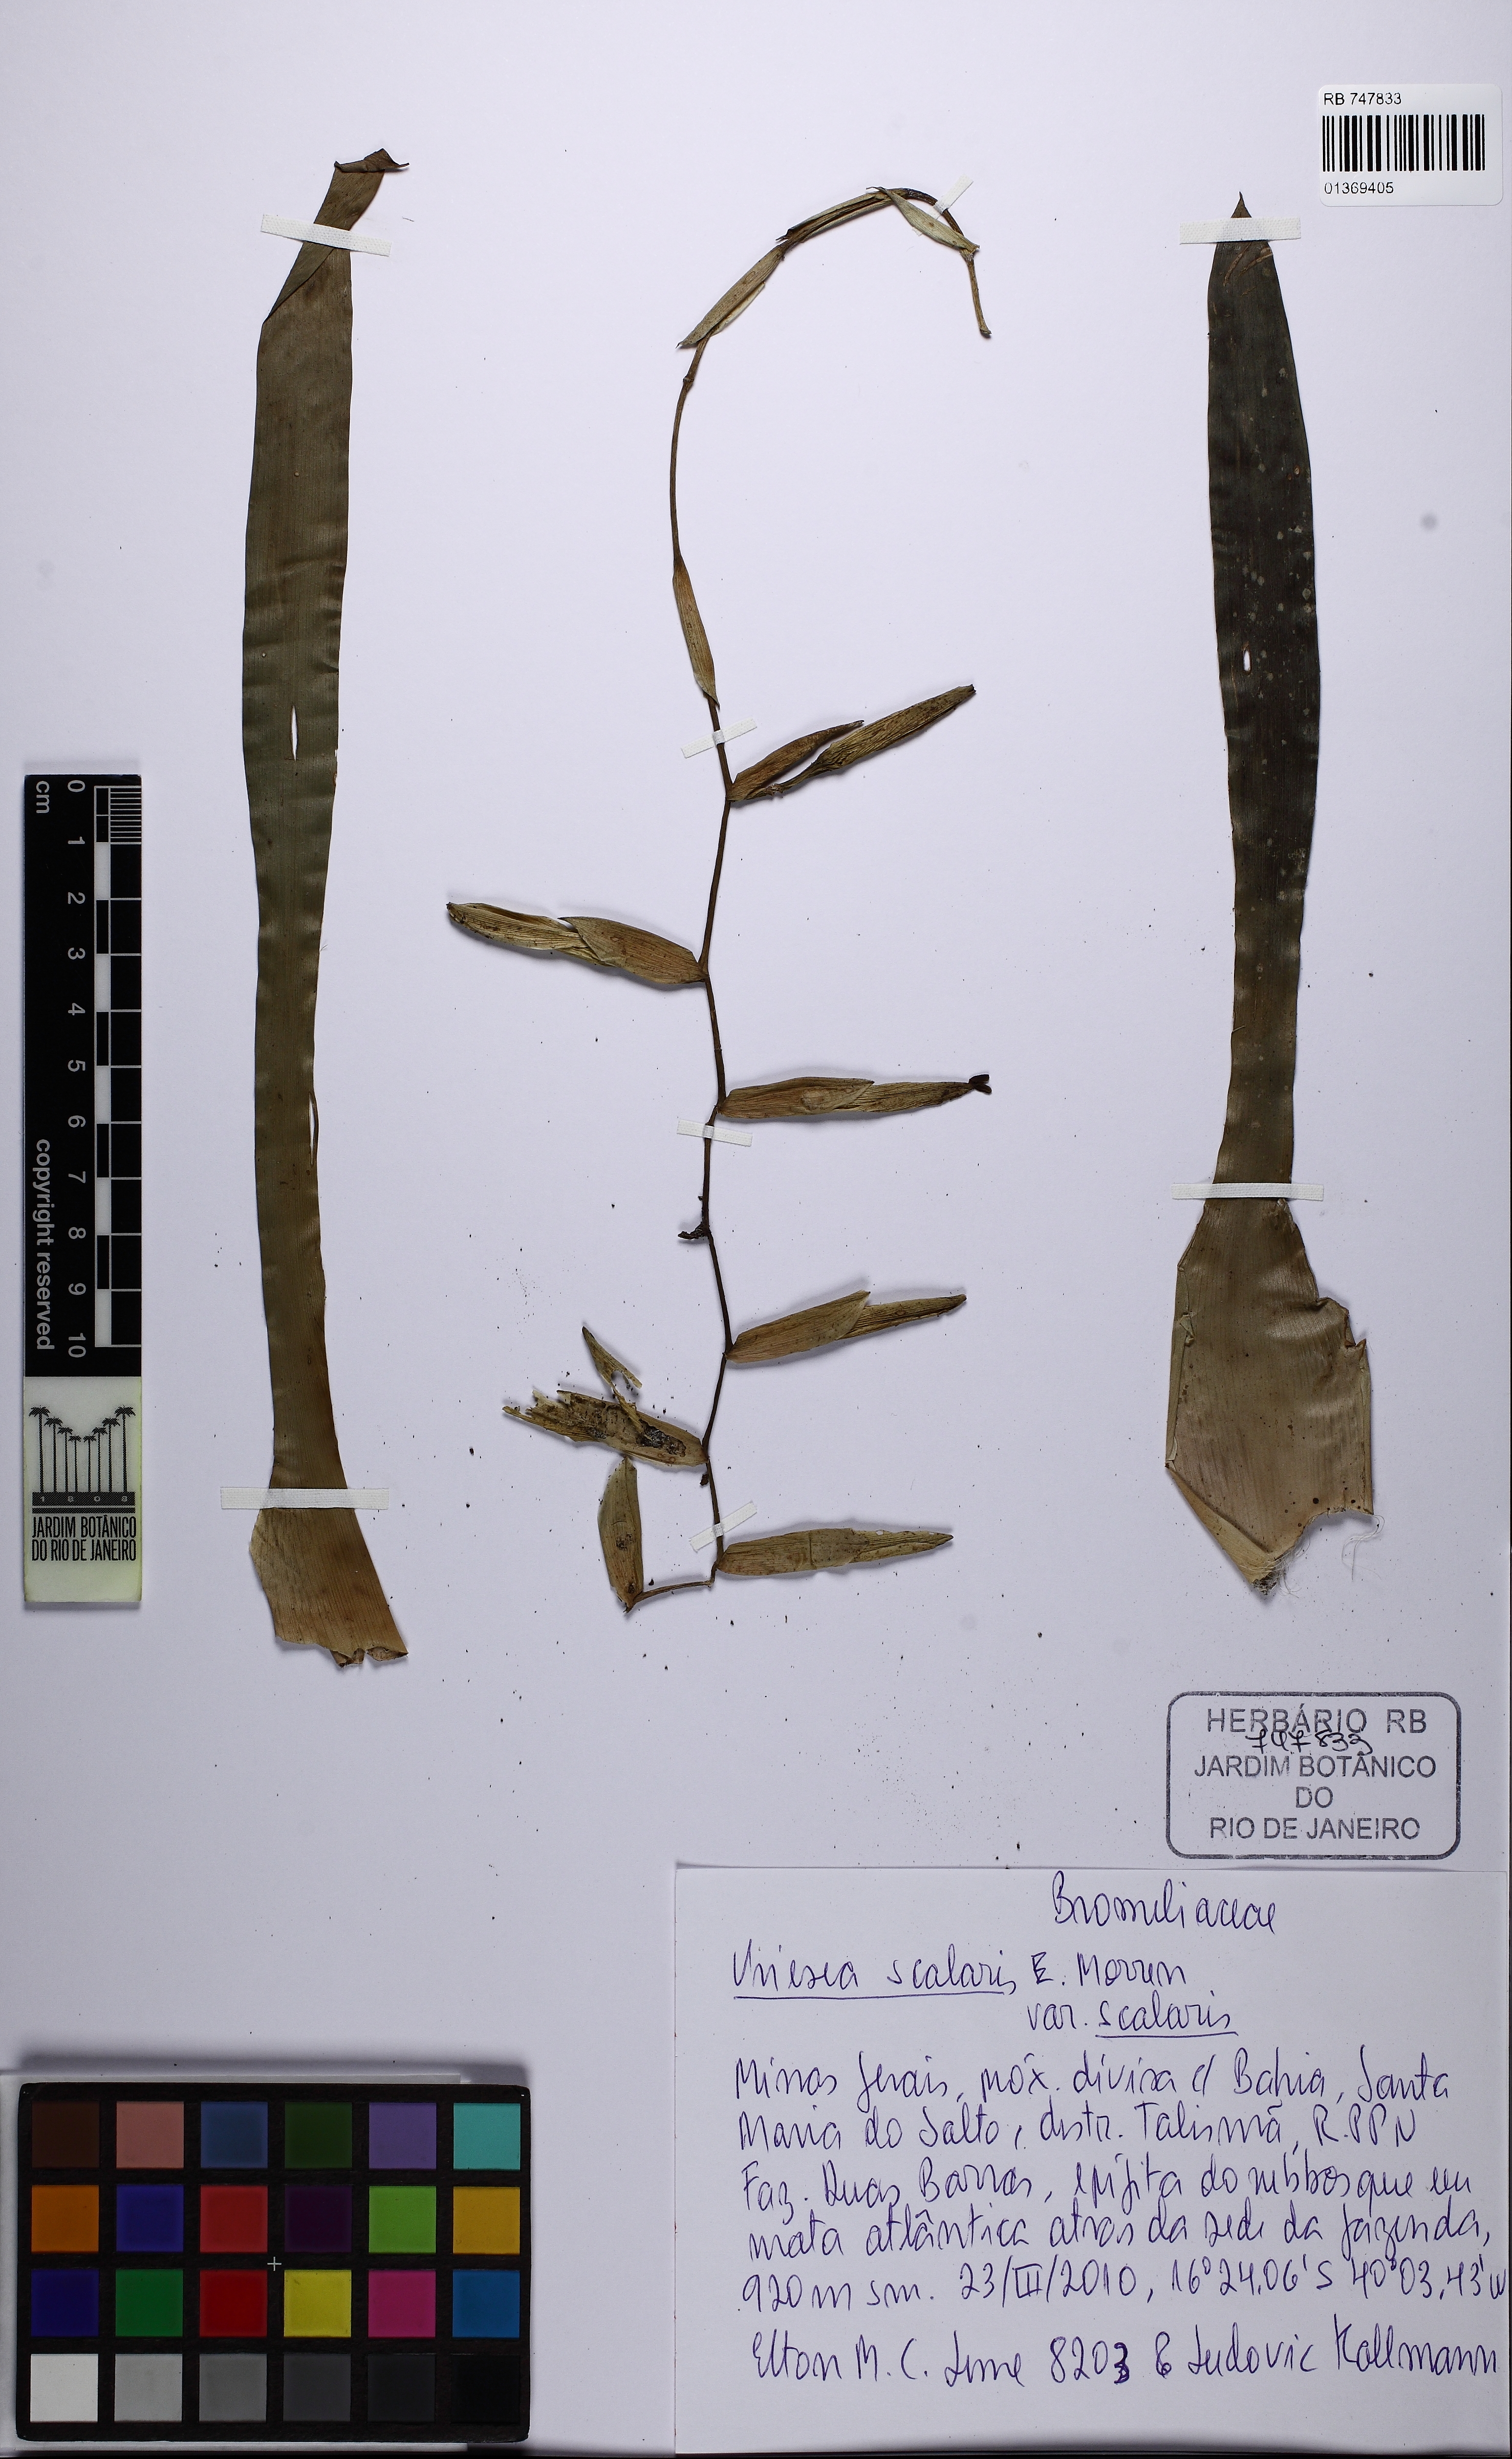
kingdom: Plantae
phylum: Tracheophyta
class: Liliopsida
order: Poales
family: Bromeliaceae
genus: Vriesea
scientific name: Vriesea scalaris
